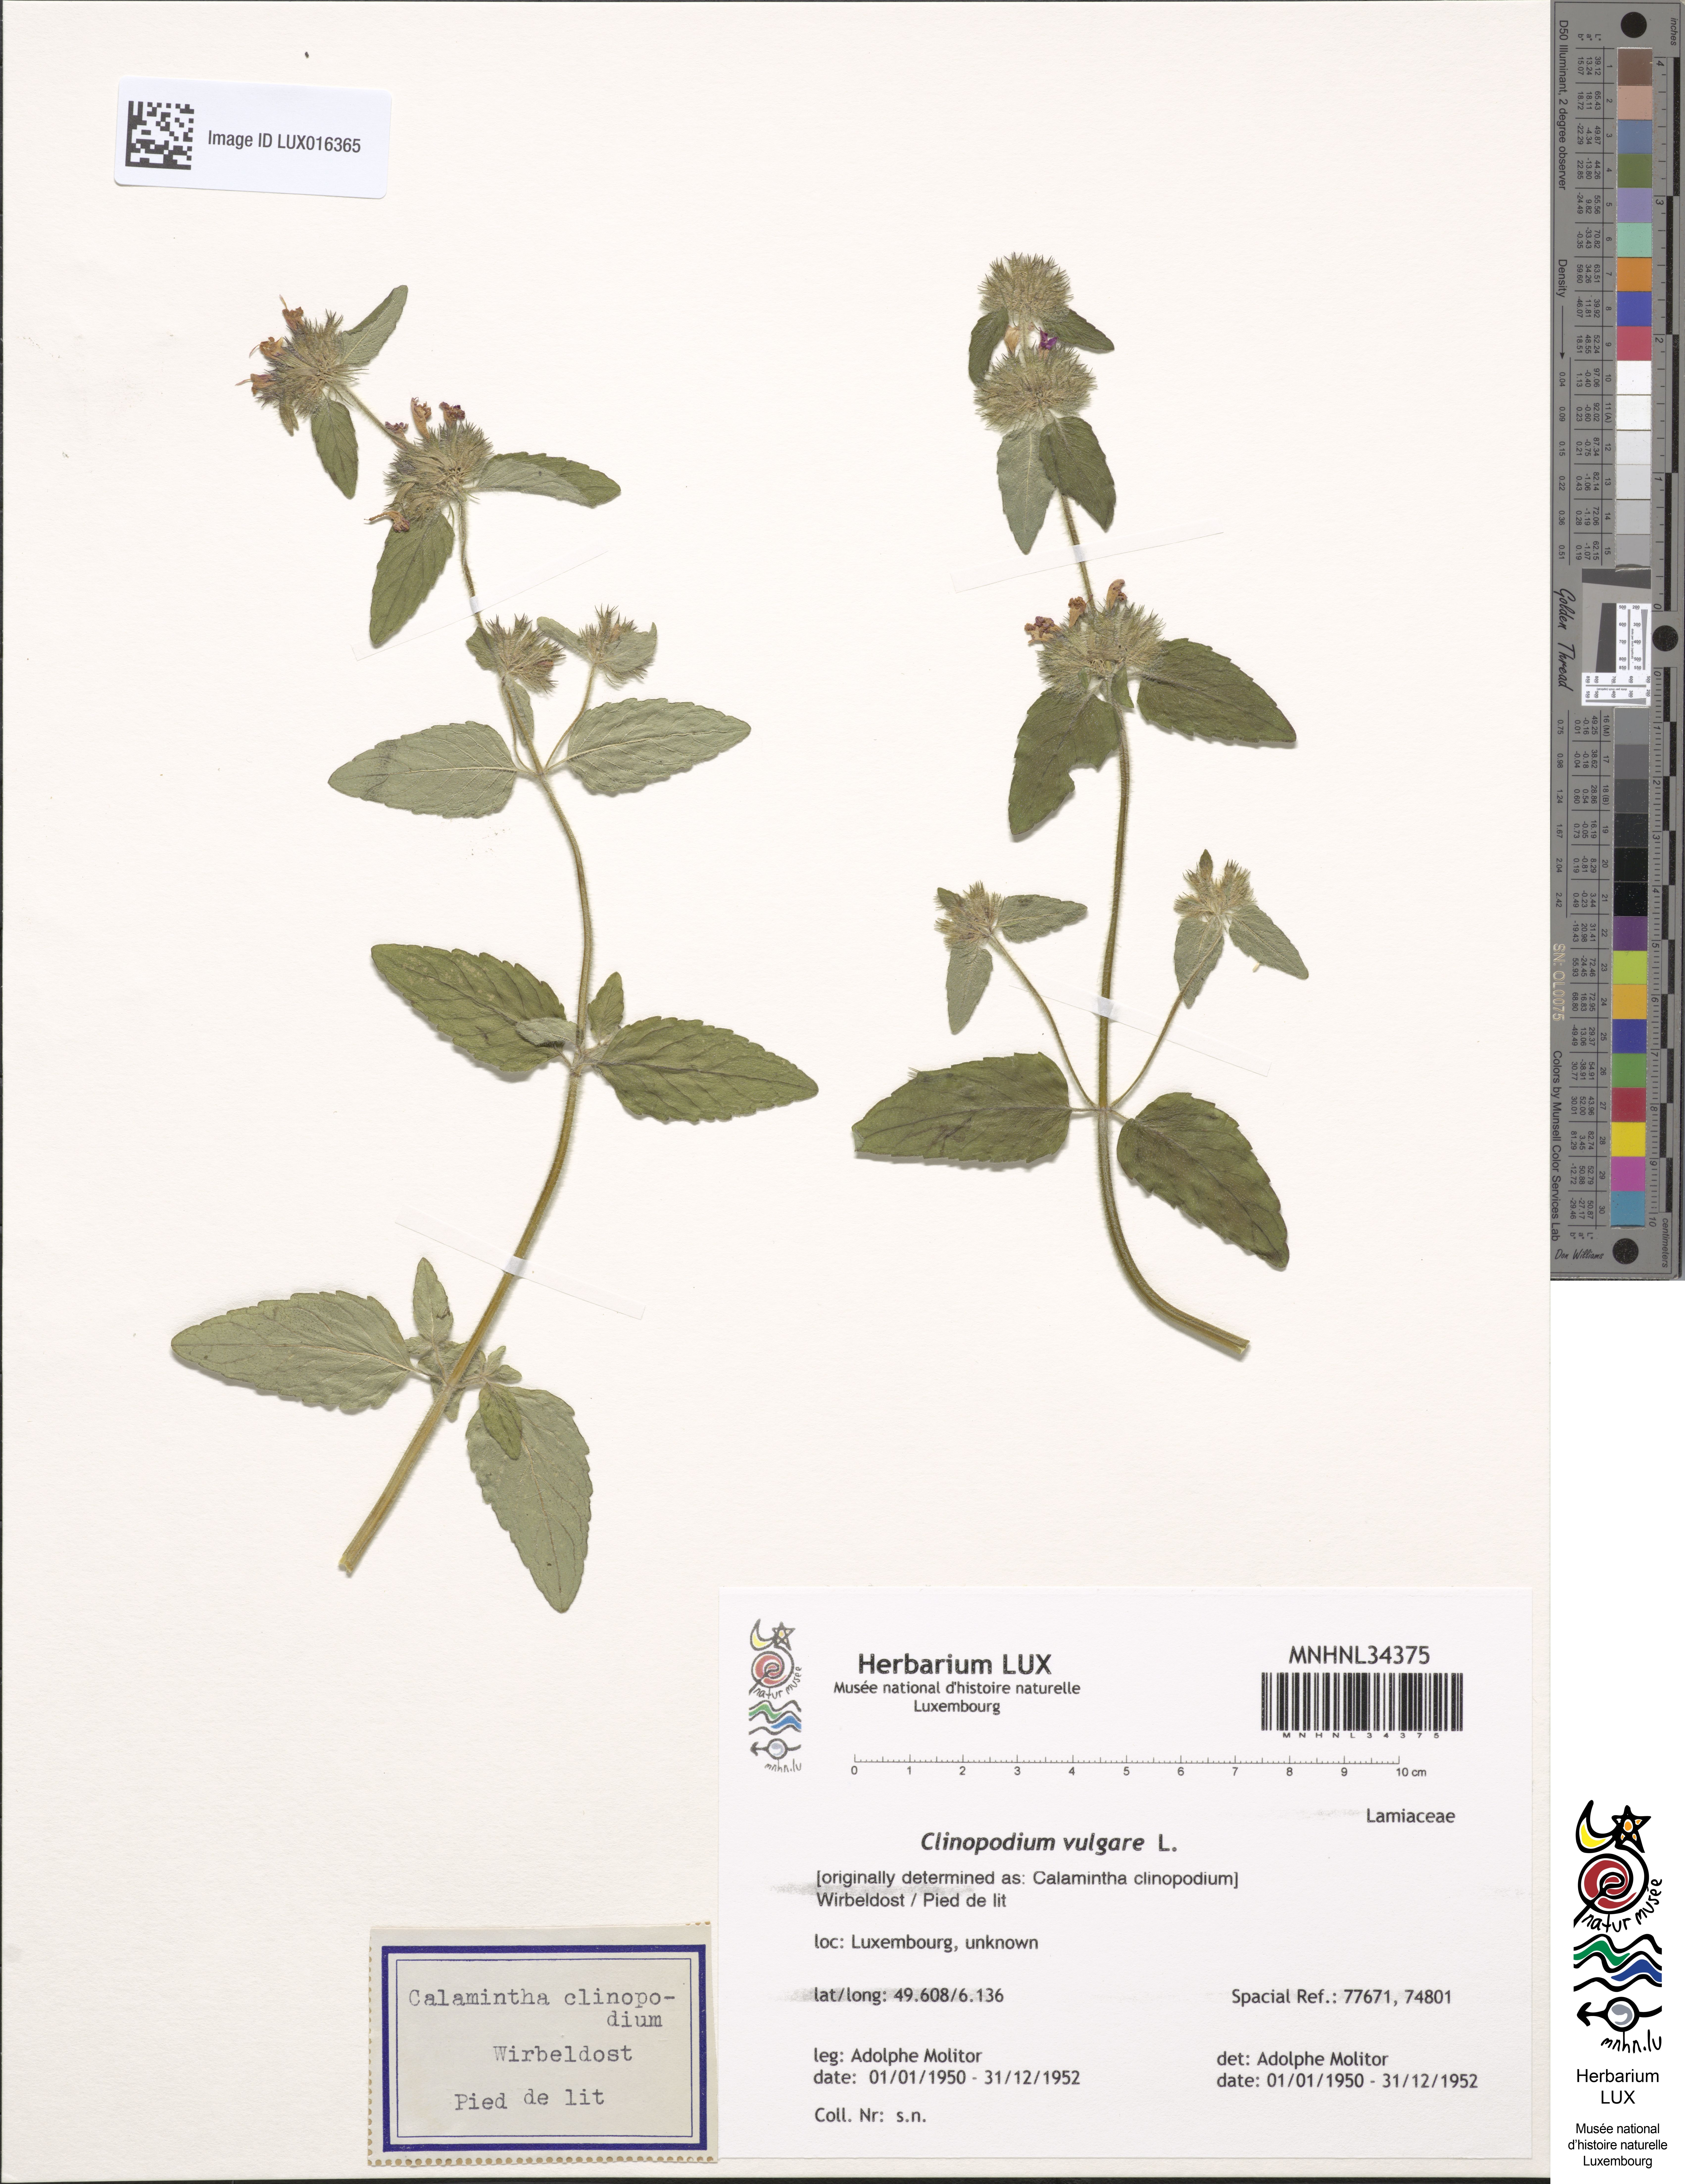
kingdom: Plantae
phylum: Tracheophyta
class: Magnoliopsida
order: Lamiales
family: Lamiaceae
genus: Clinopodium
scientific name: Clinopodium vulgare
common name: Wild basil
